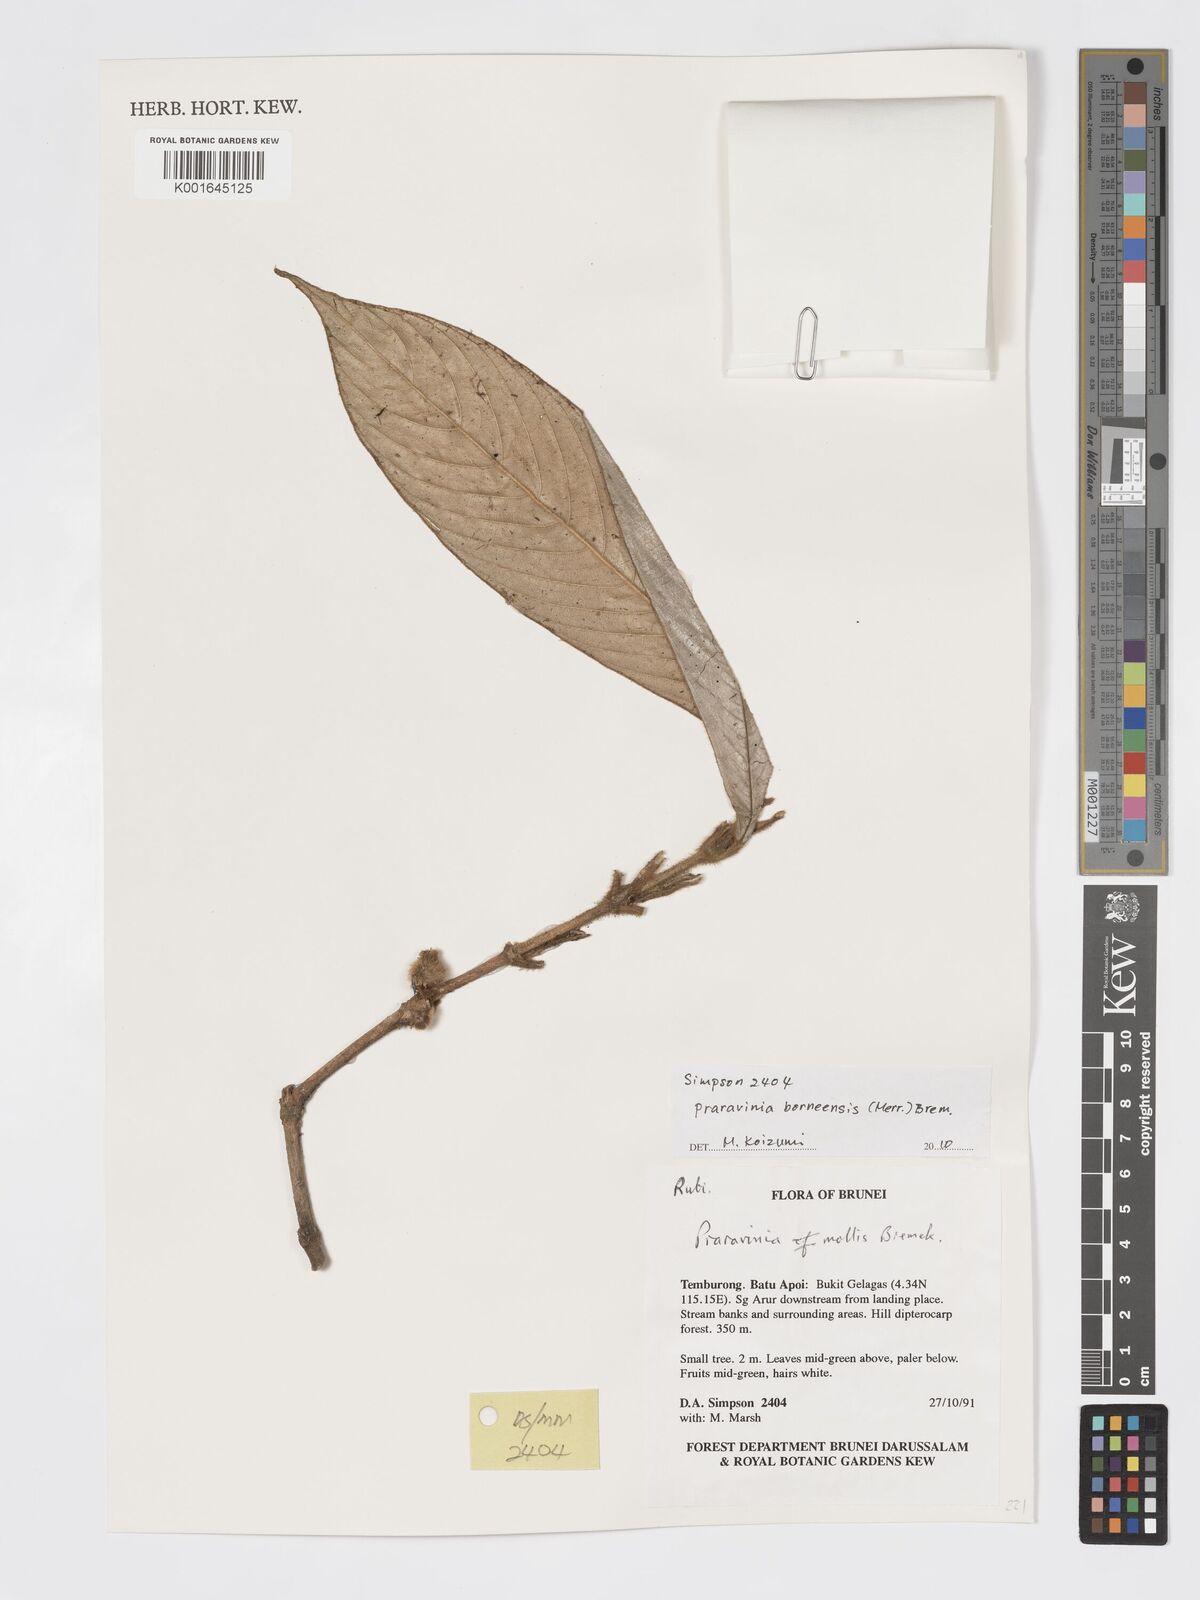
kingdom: Plantae
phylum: Tracheophyta
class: Magnoliopsida
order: Gentianales
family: Rubiaceae
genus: Praravinia
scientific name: Praravinia borneensis
